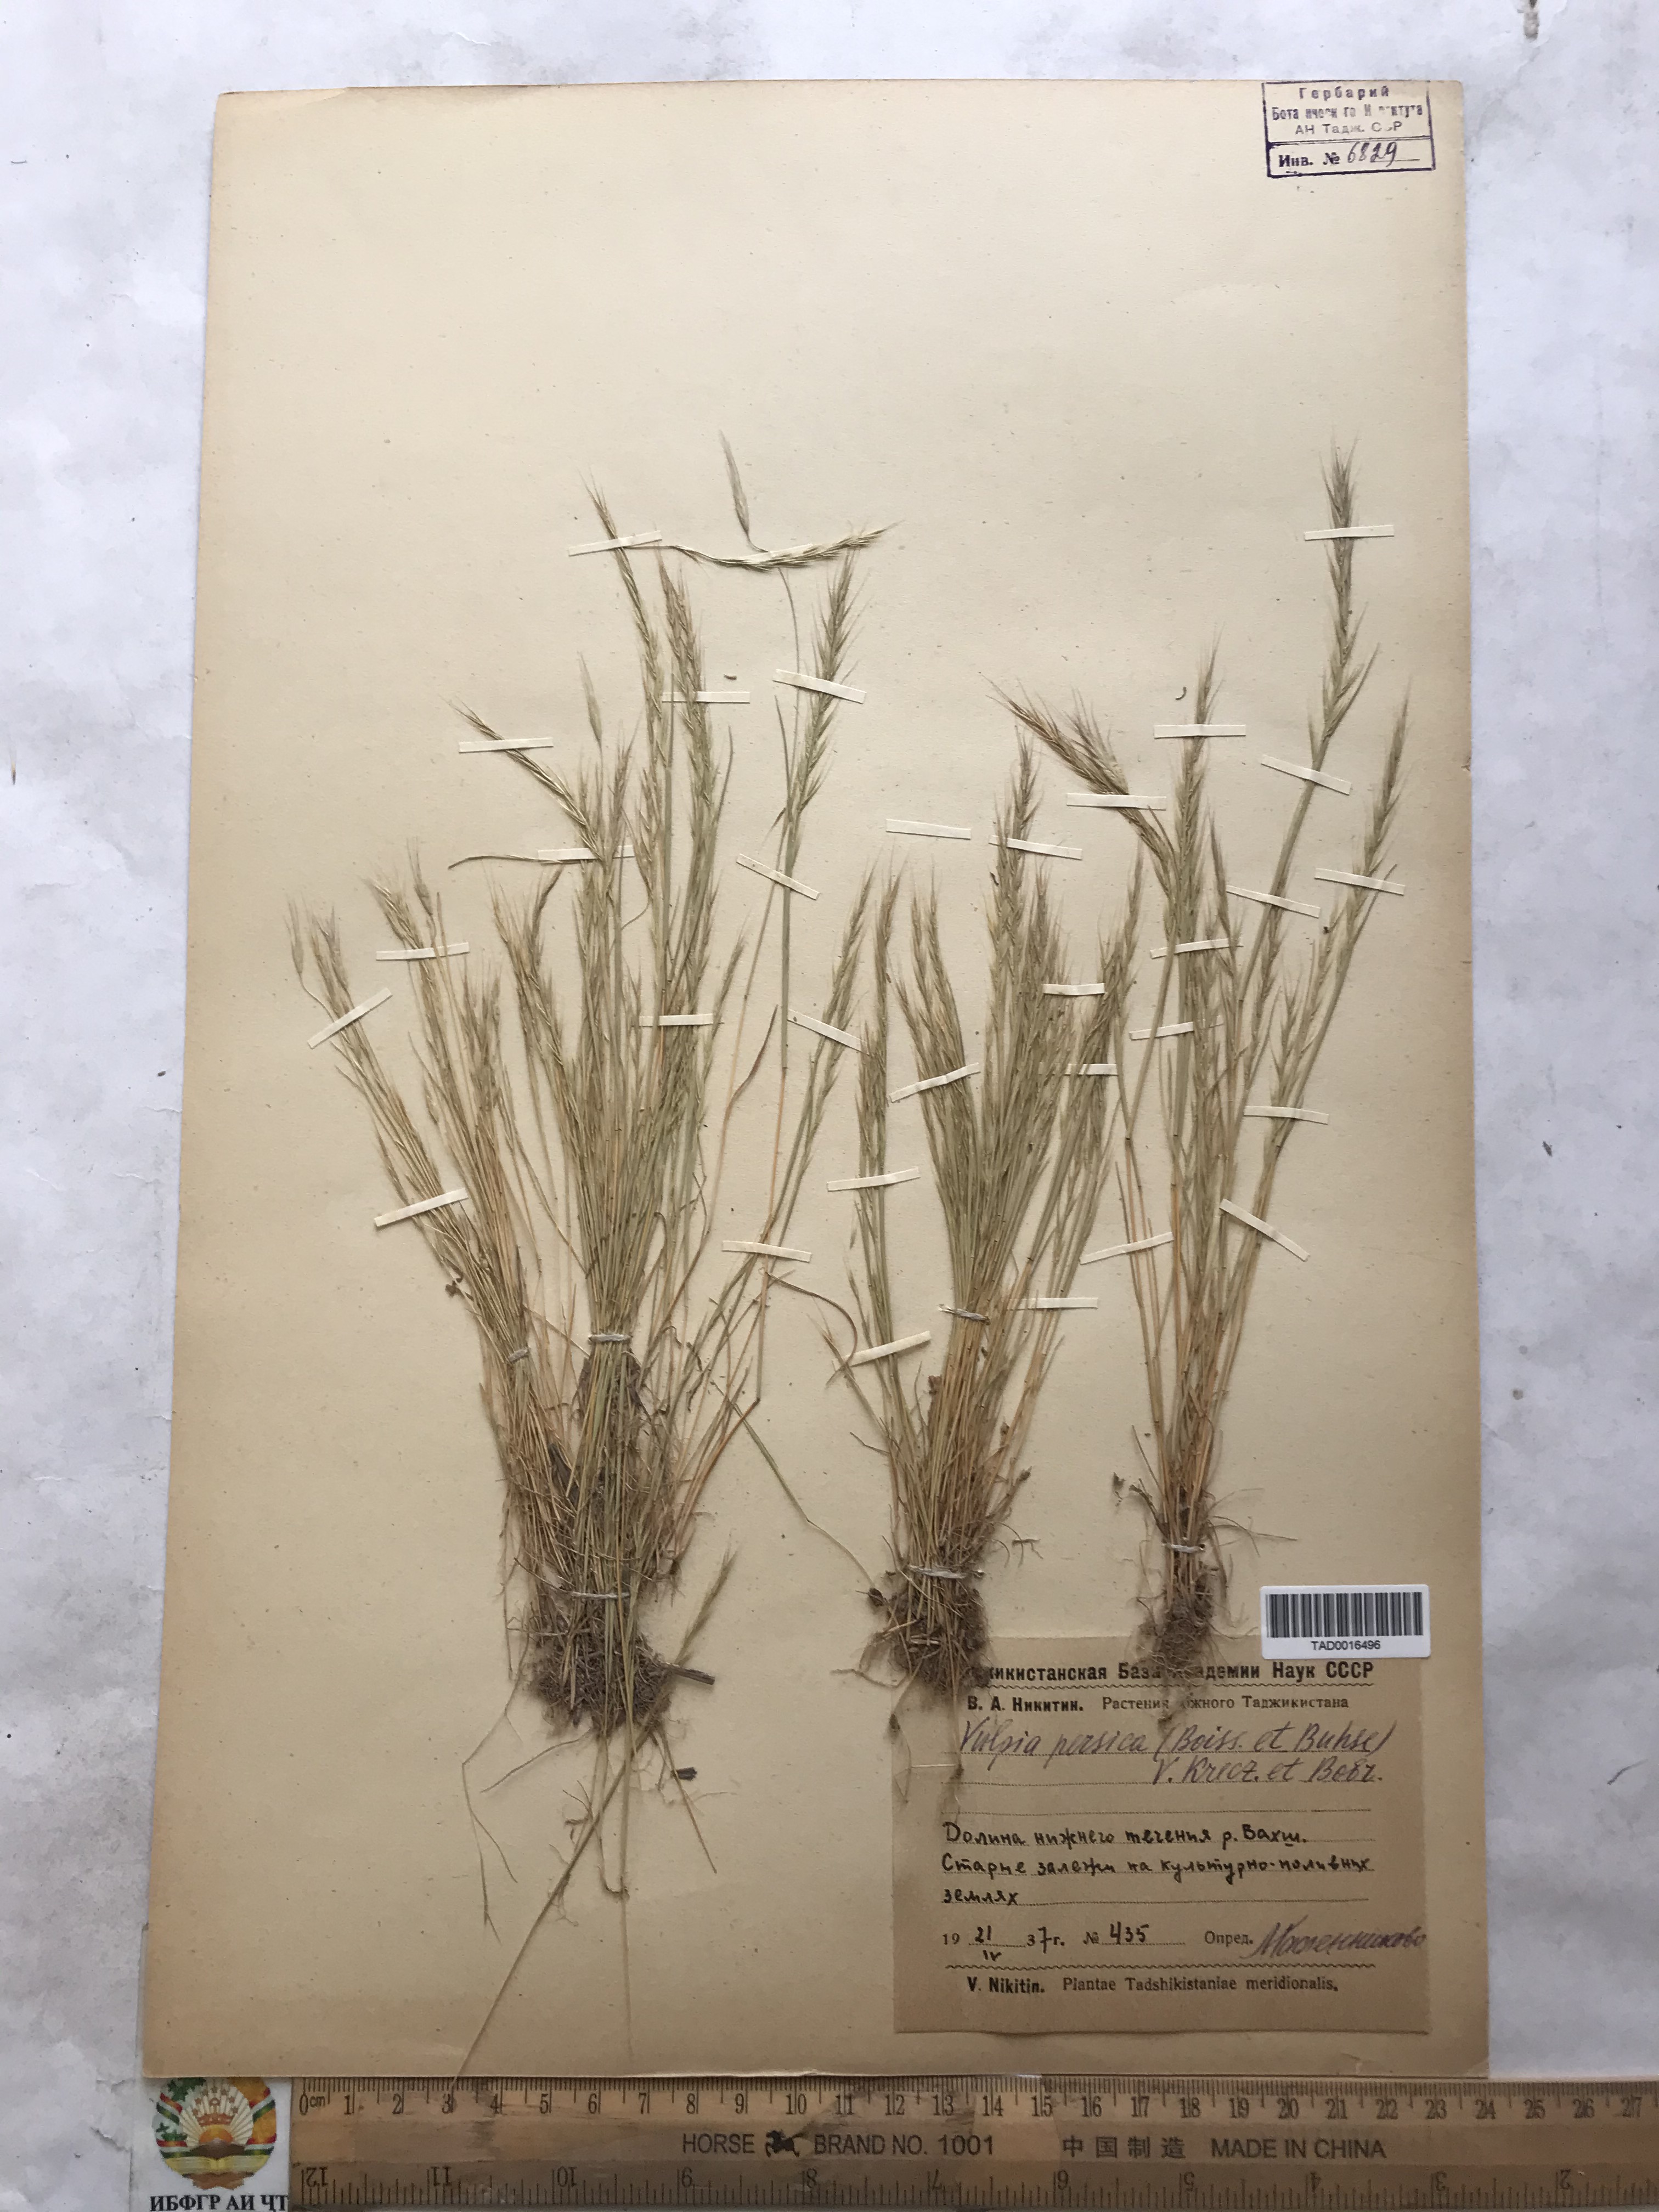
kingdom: Plantae
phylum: Tracheophyta
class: Liliopsida
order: Poales
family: Poaceae
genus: Festuca
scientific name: Festuca Vulpia persica
